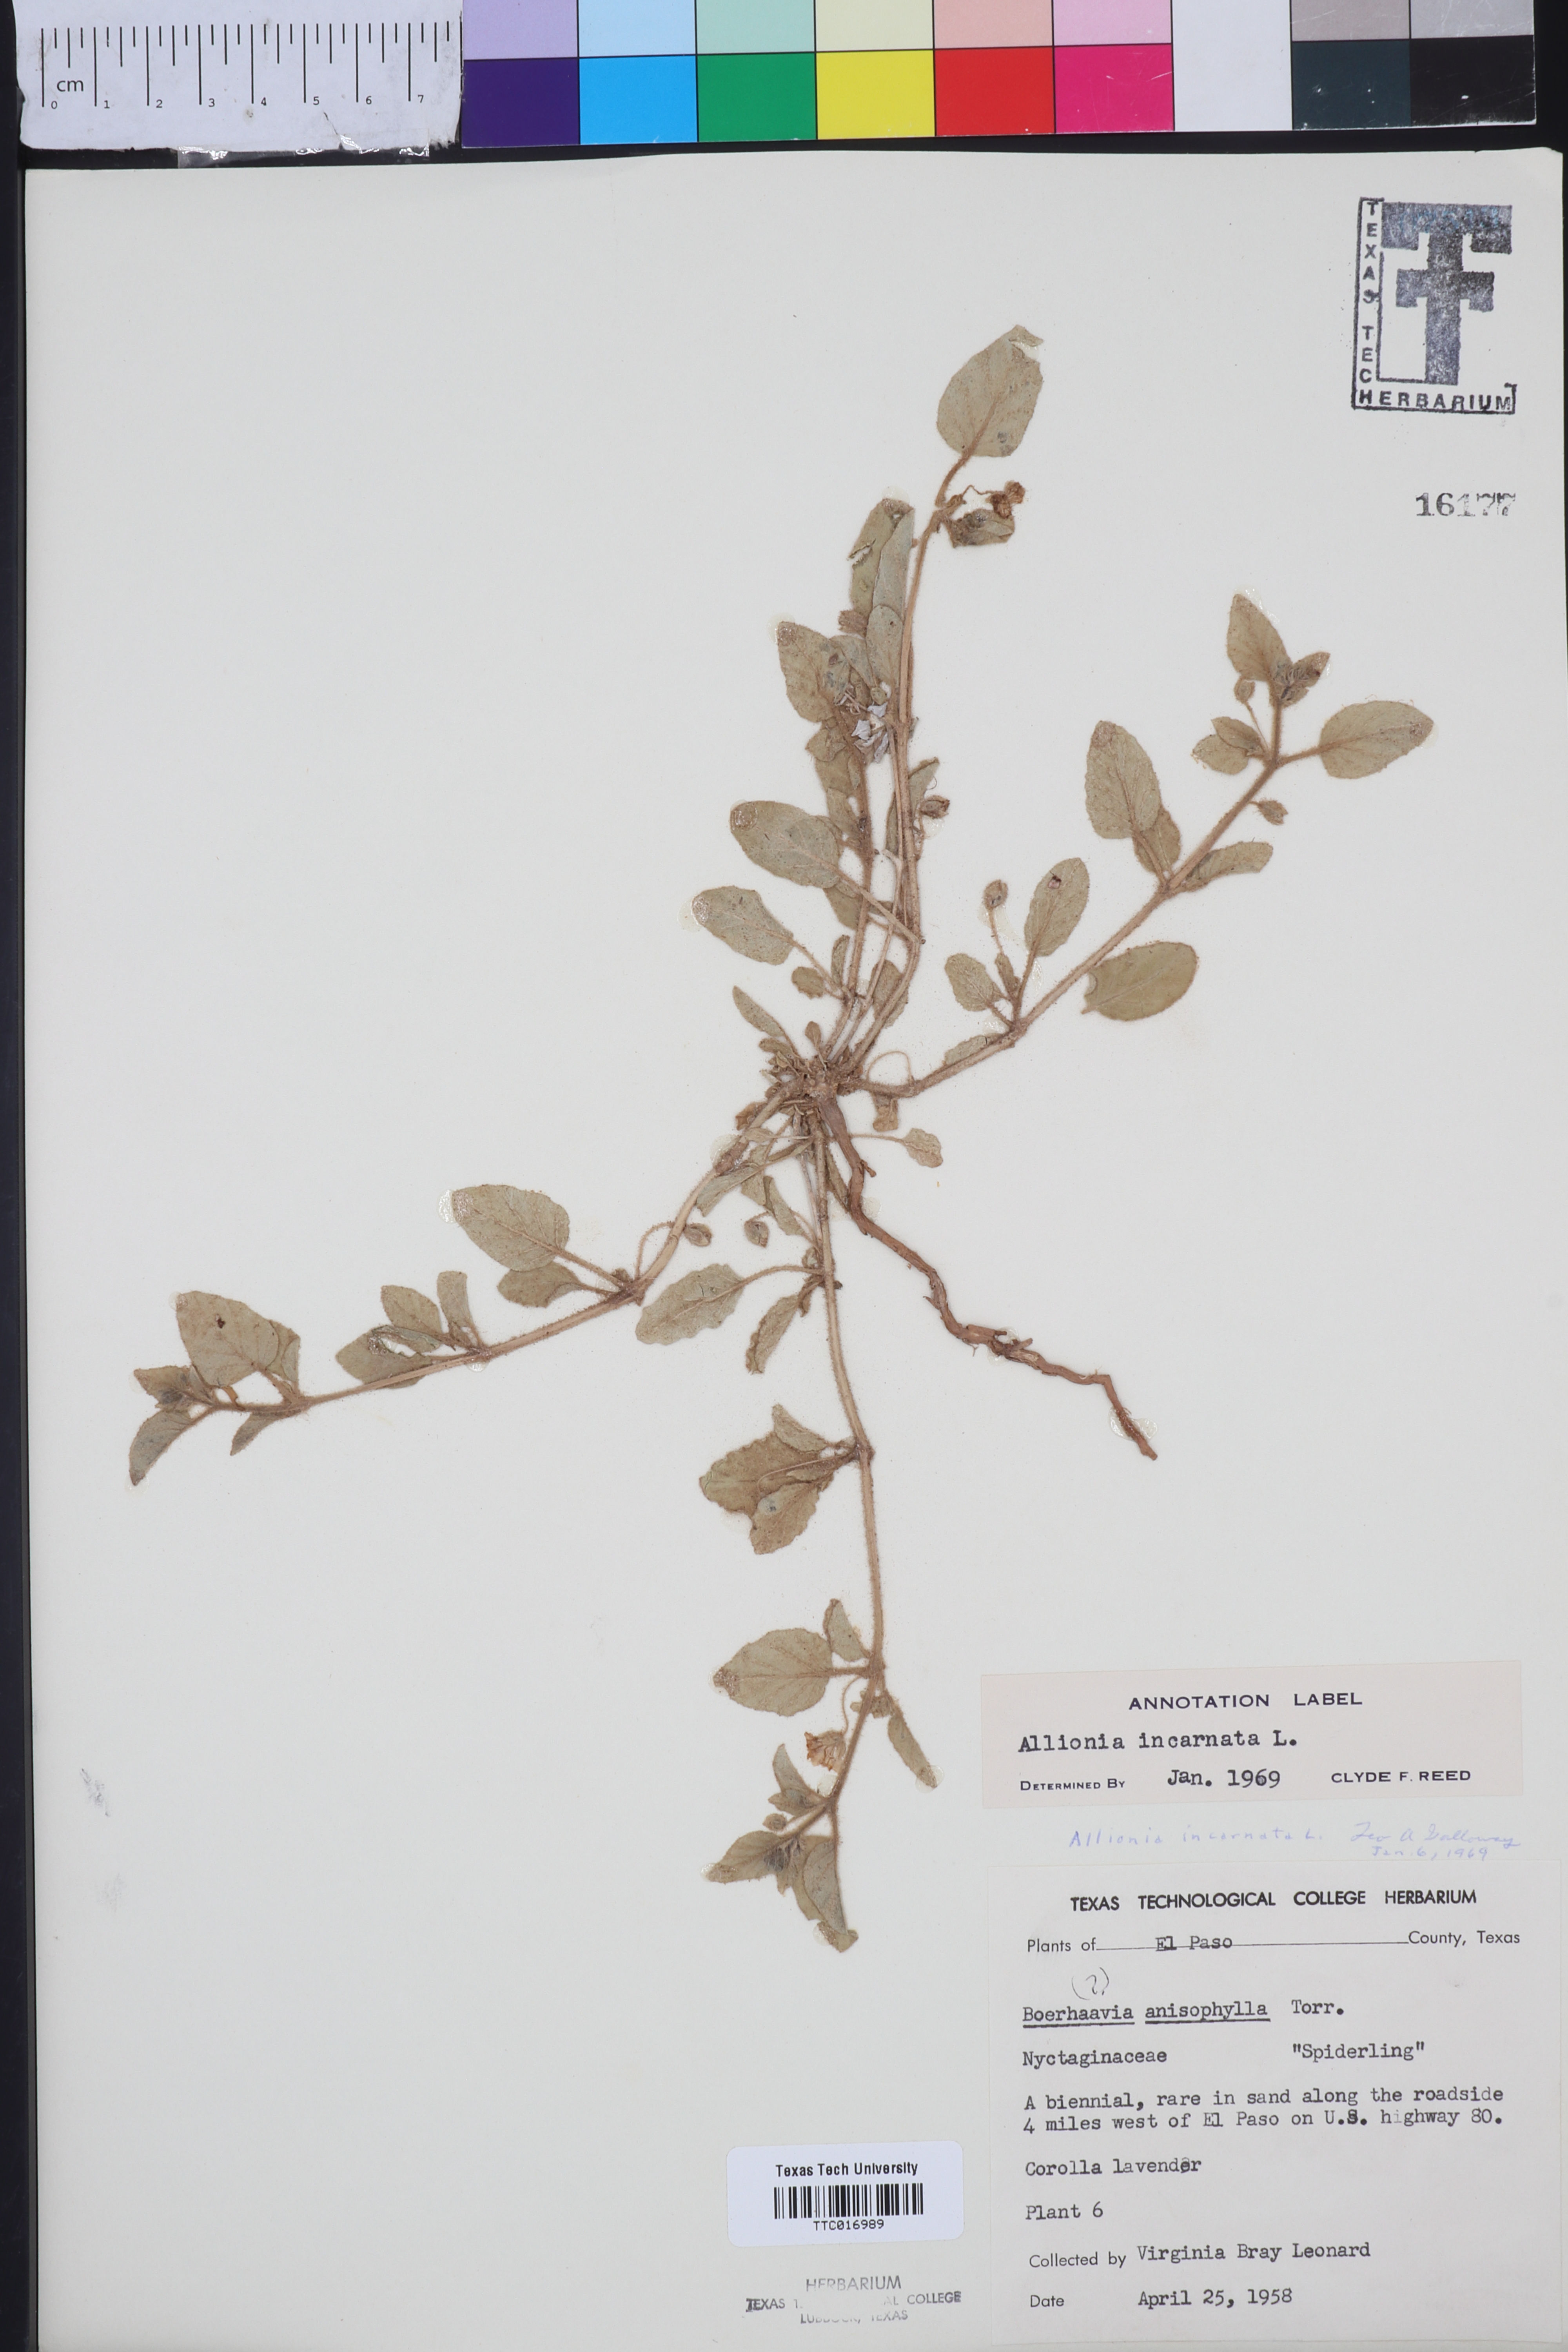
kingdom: Plantae
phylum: Tracheophyta
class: Magnoliopsida
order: Caryophyllales
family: Nyctaginaceae
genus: Allionia
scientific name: Allionia incarnata
